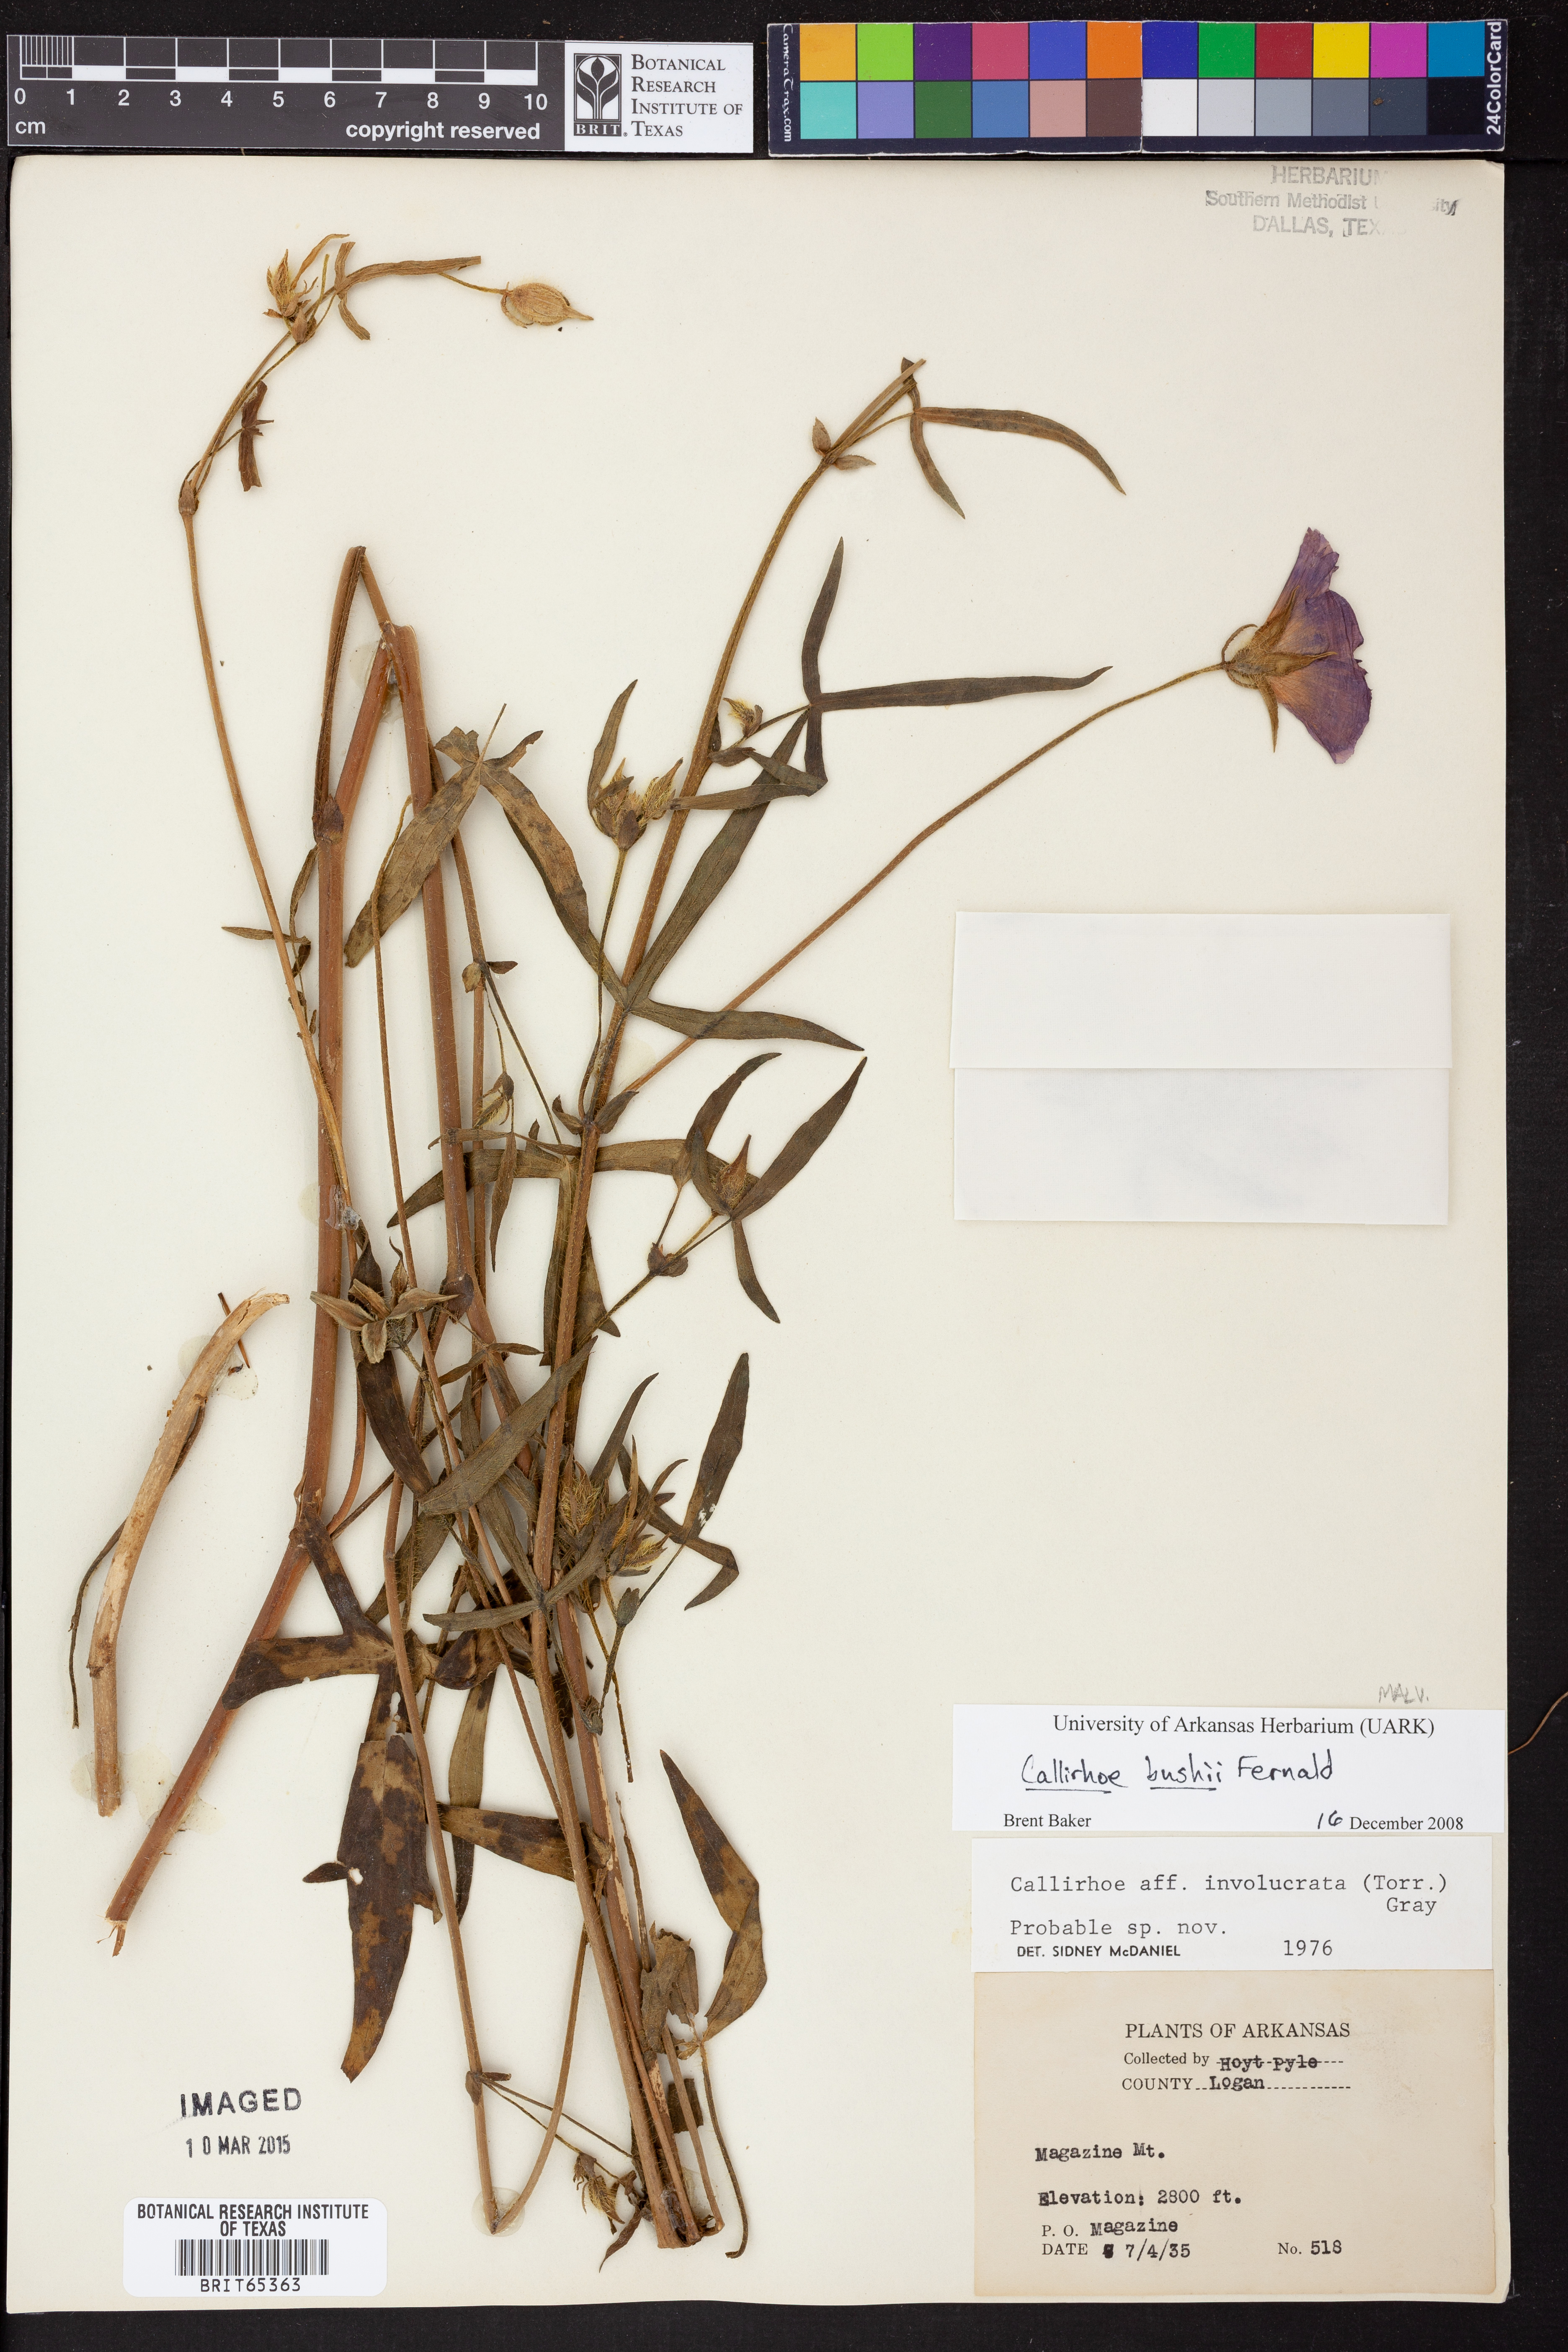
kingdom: Plantae
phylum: Tracheophyta
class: Magnoliopsida
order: Malvales
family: Malvaceae
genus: Callirhoe
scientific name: Callirhoe alcaeoides
